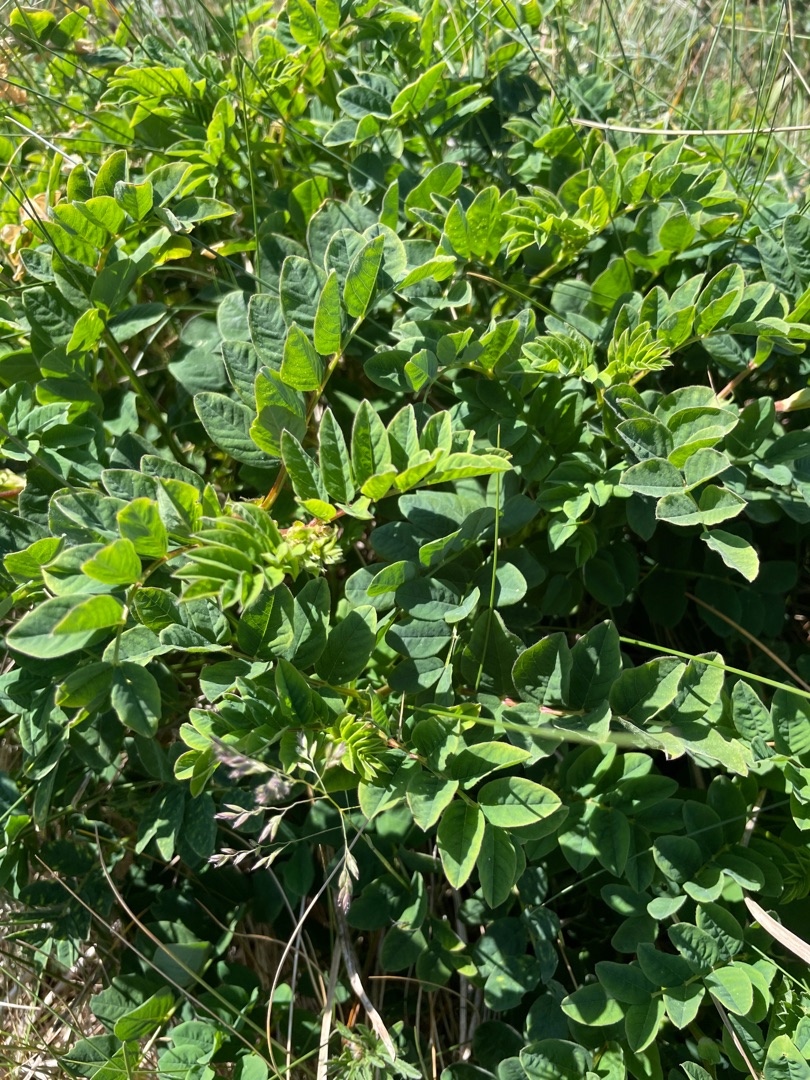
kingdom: Plantae
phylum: Tracheophyta
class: Magnoliopsida
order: Fabales
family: Fabaceae
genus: Astragalus
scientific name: Astragalus glycyphyllos
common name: Sød astragel
